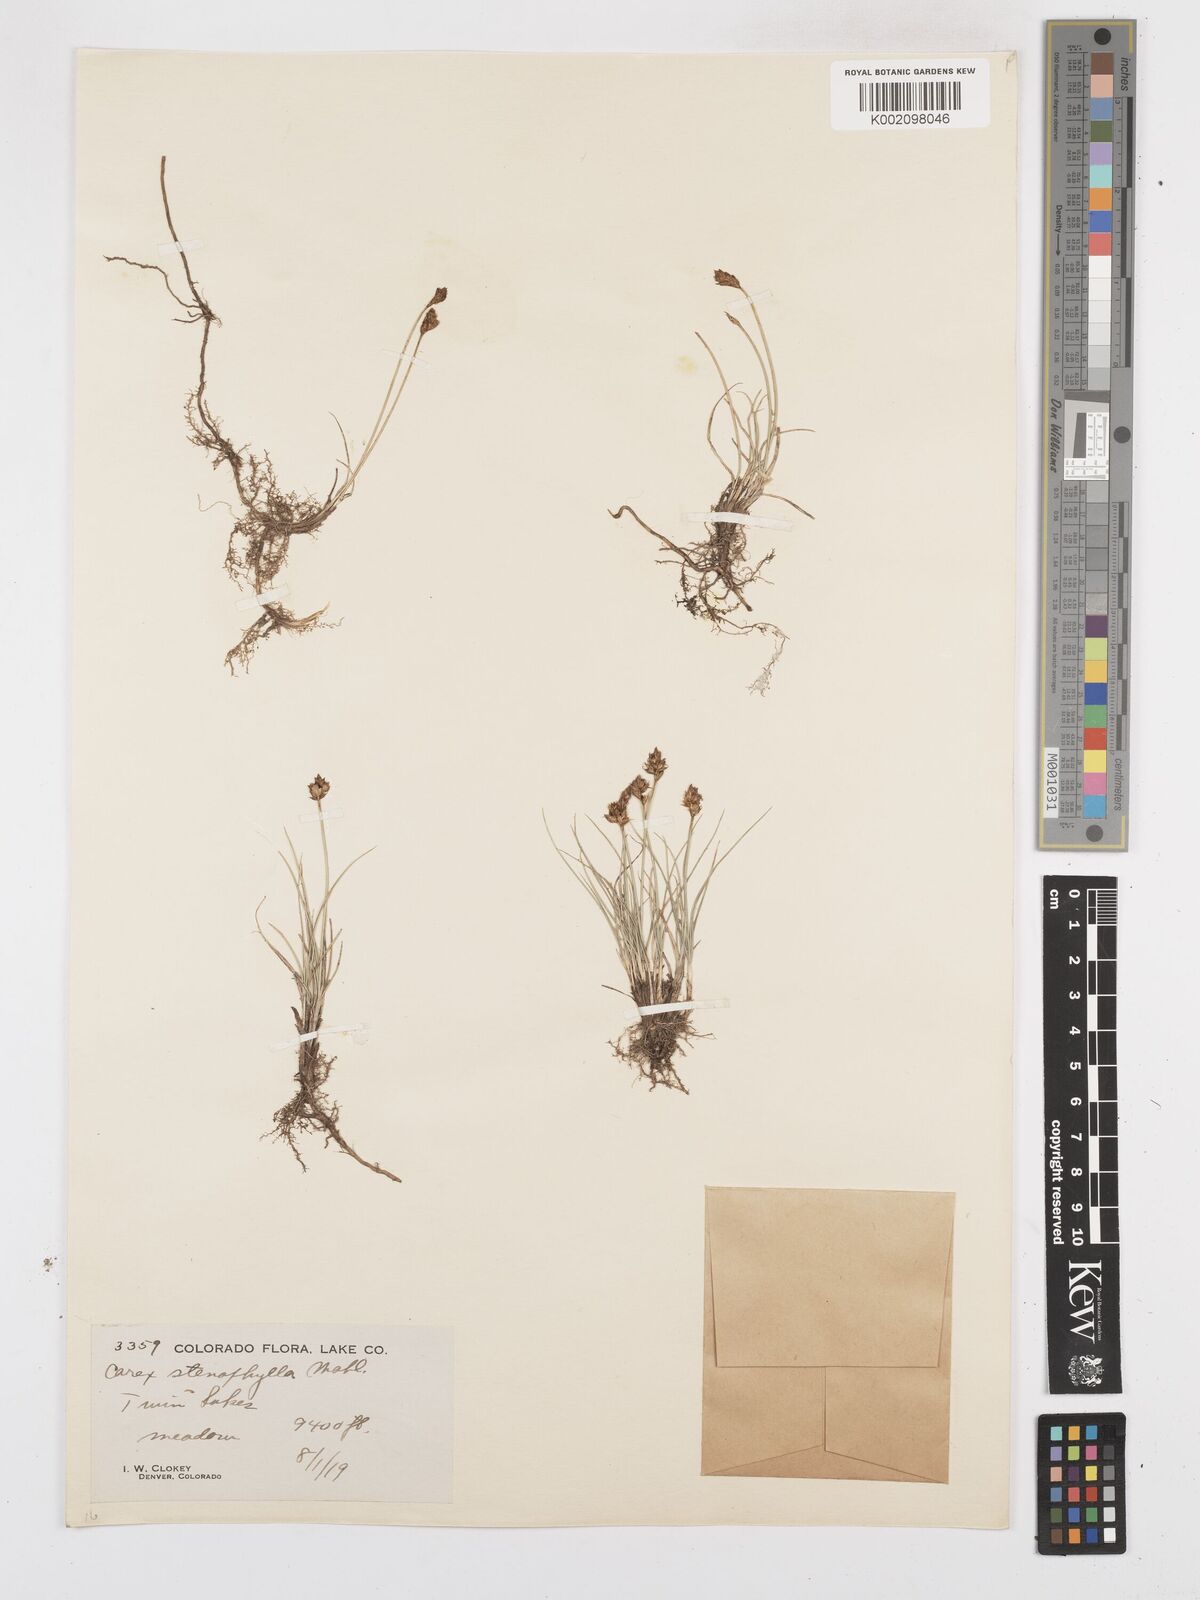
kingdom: Plantae
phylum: Tracheophyta
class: Liliopsida
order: Poales
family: Cyperaceae
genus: Carex
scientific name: Carex duriuscula
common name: Involute-leaved sedge
